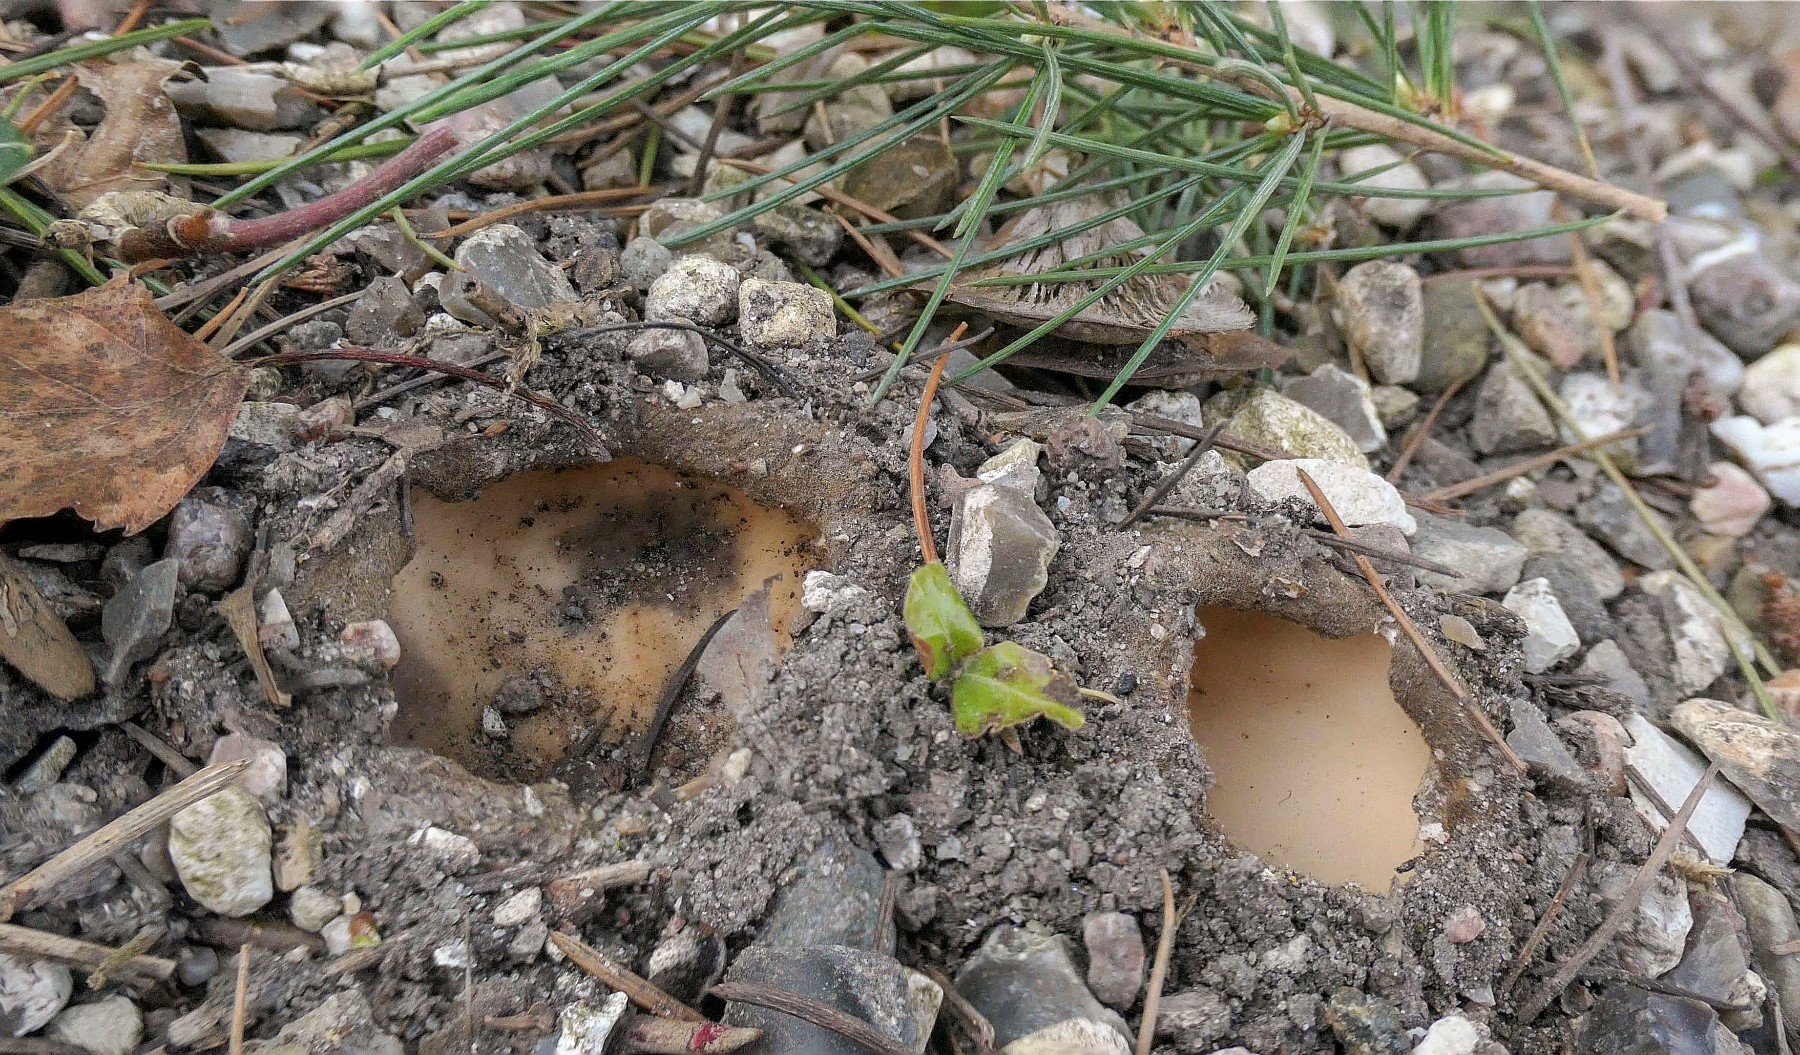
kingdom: Fungi
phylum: Ascomycota
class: Pezizomycetes
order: Pezizales
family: Pyronemataceae
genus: Geopora
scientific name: Geopora sumneriana
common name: vår-jordbæger
